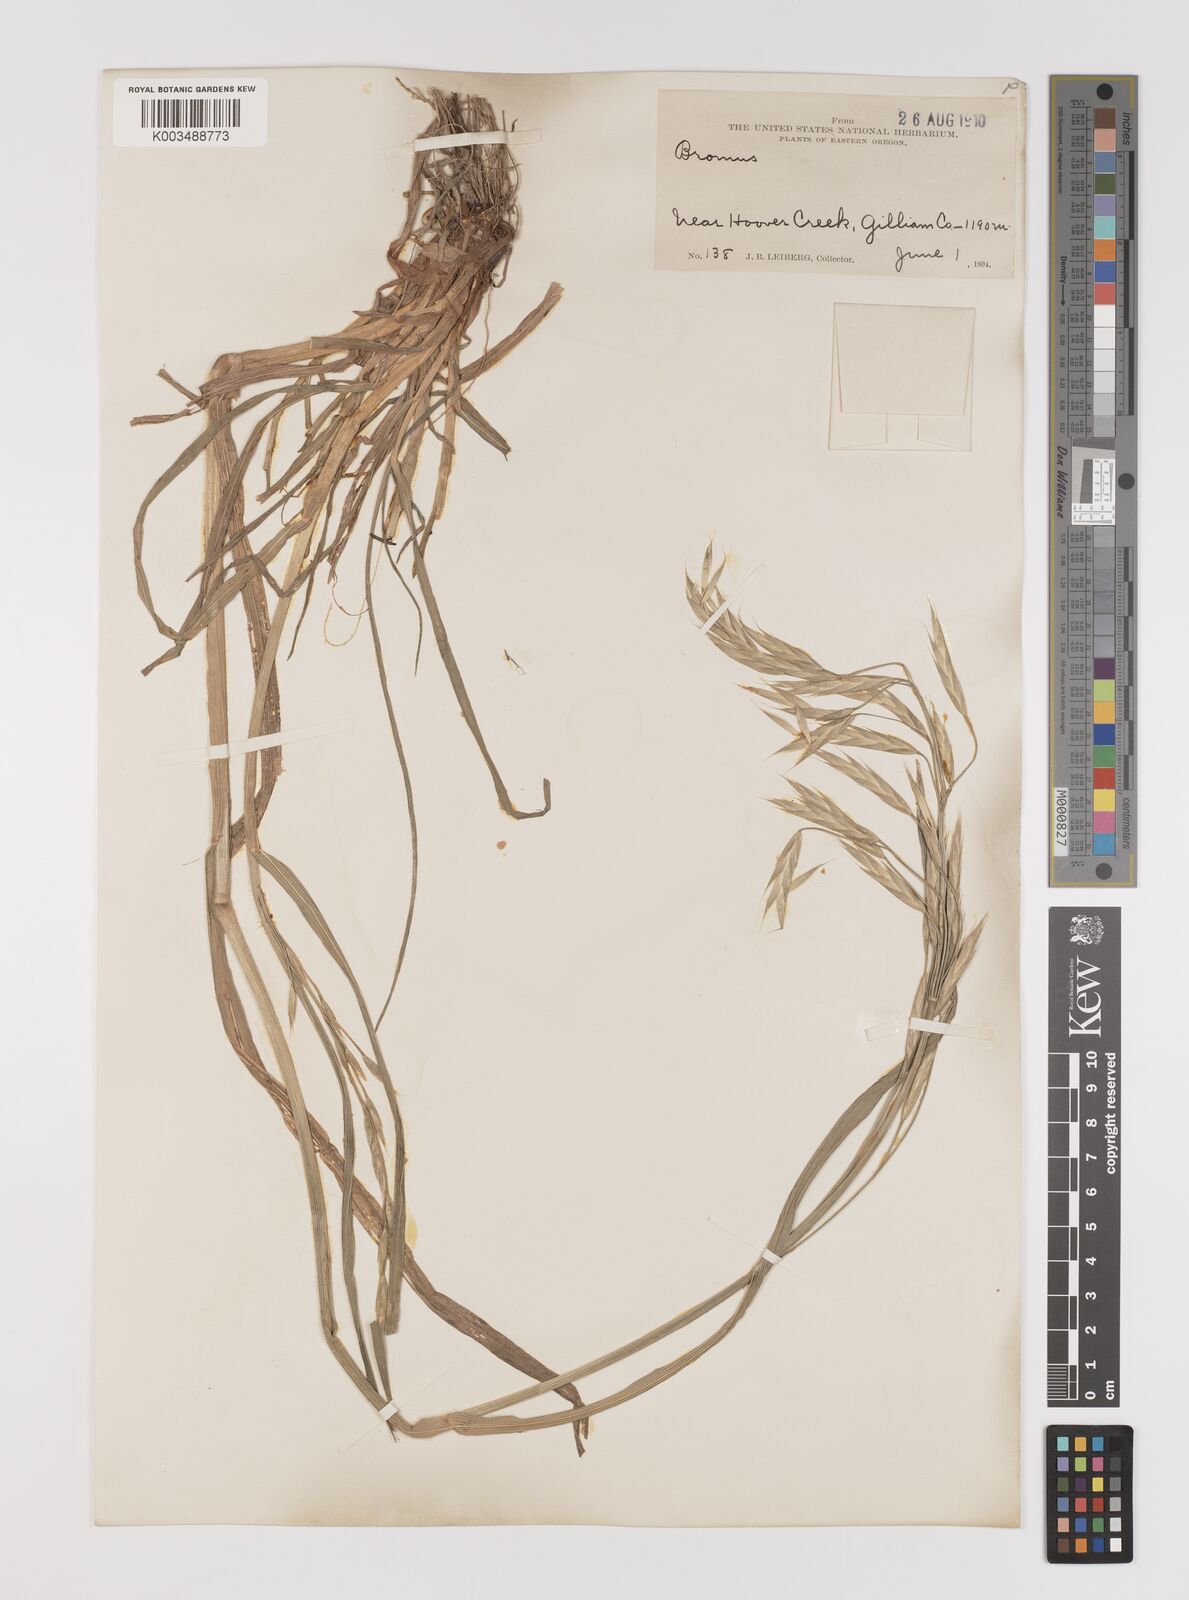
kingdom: Plantae
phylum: Tracheophyta
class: Liliopsida
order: Poales
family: Poaceae
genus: Bromus
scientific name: Bromus
